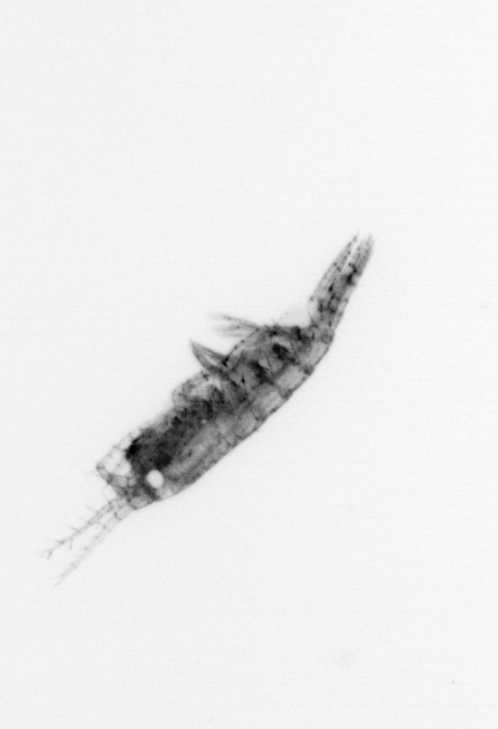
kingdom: Animalia
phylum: Arthropoda
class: Copepoda
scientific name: Copepoda
